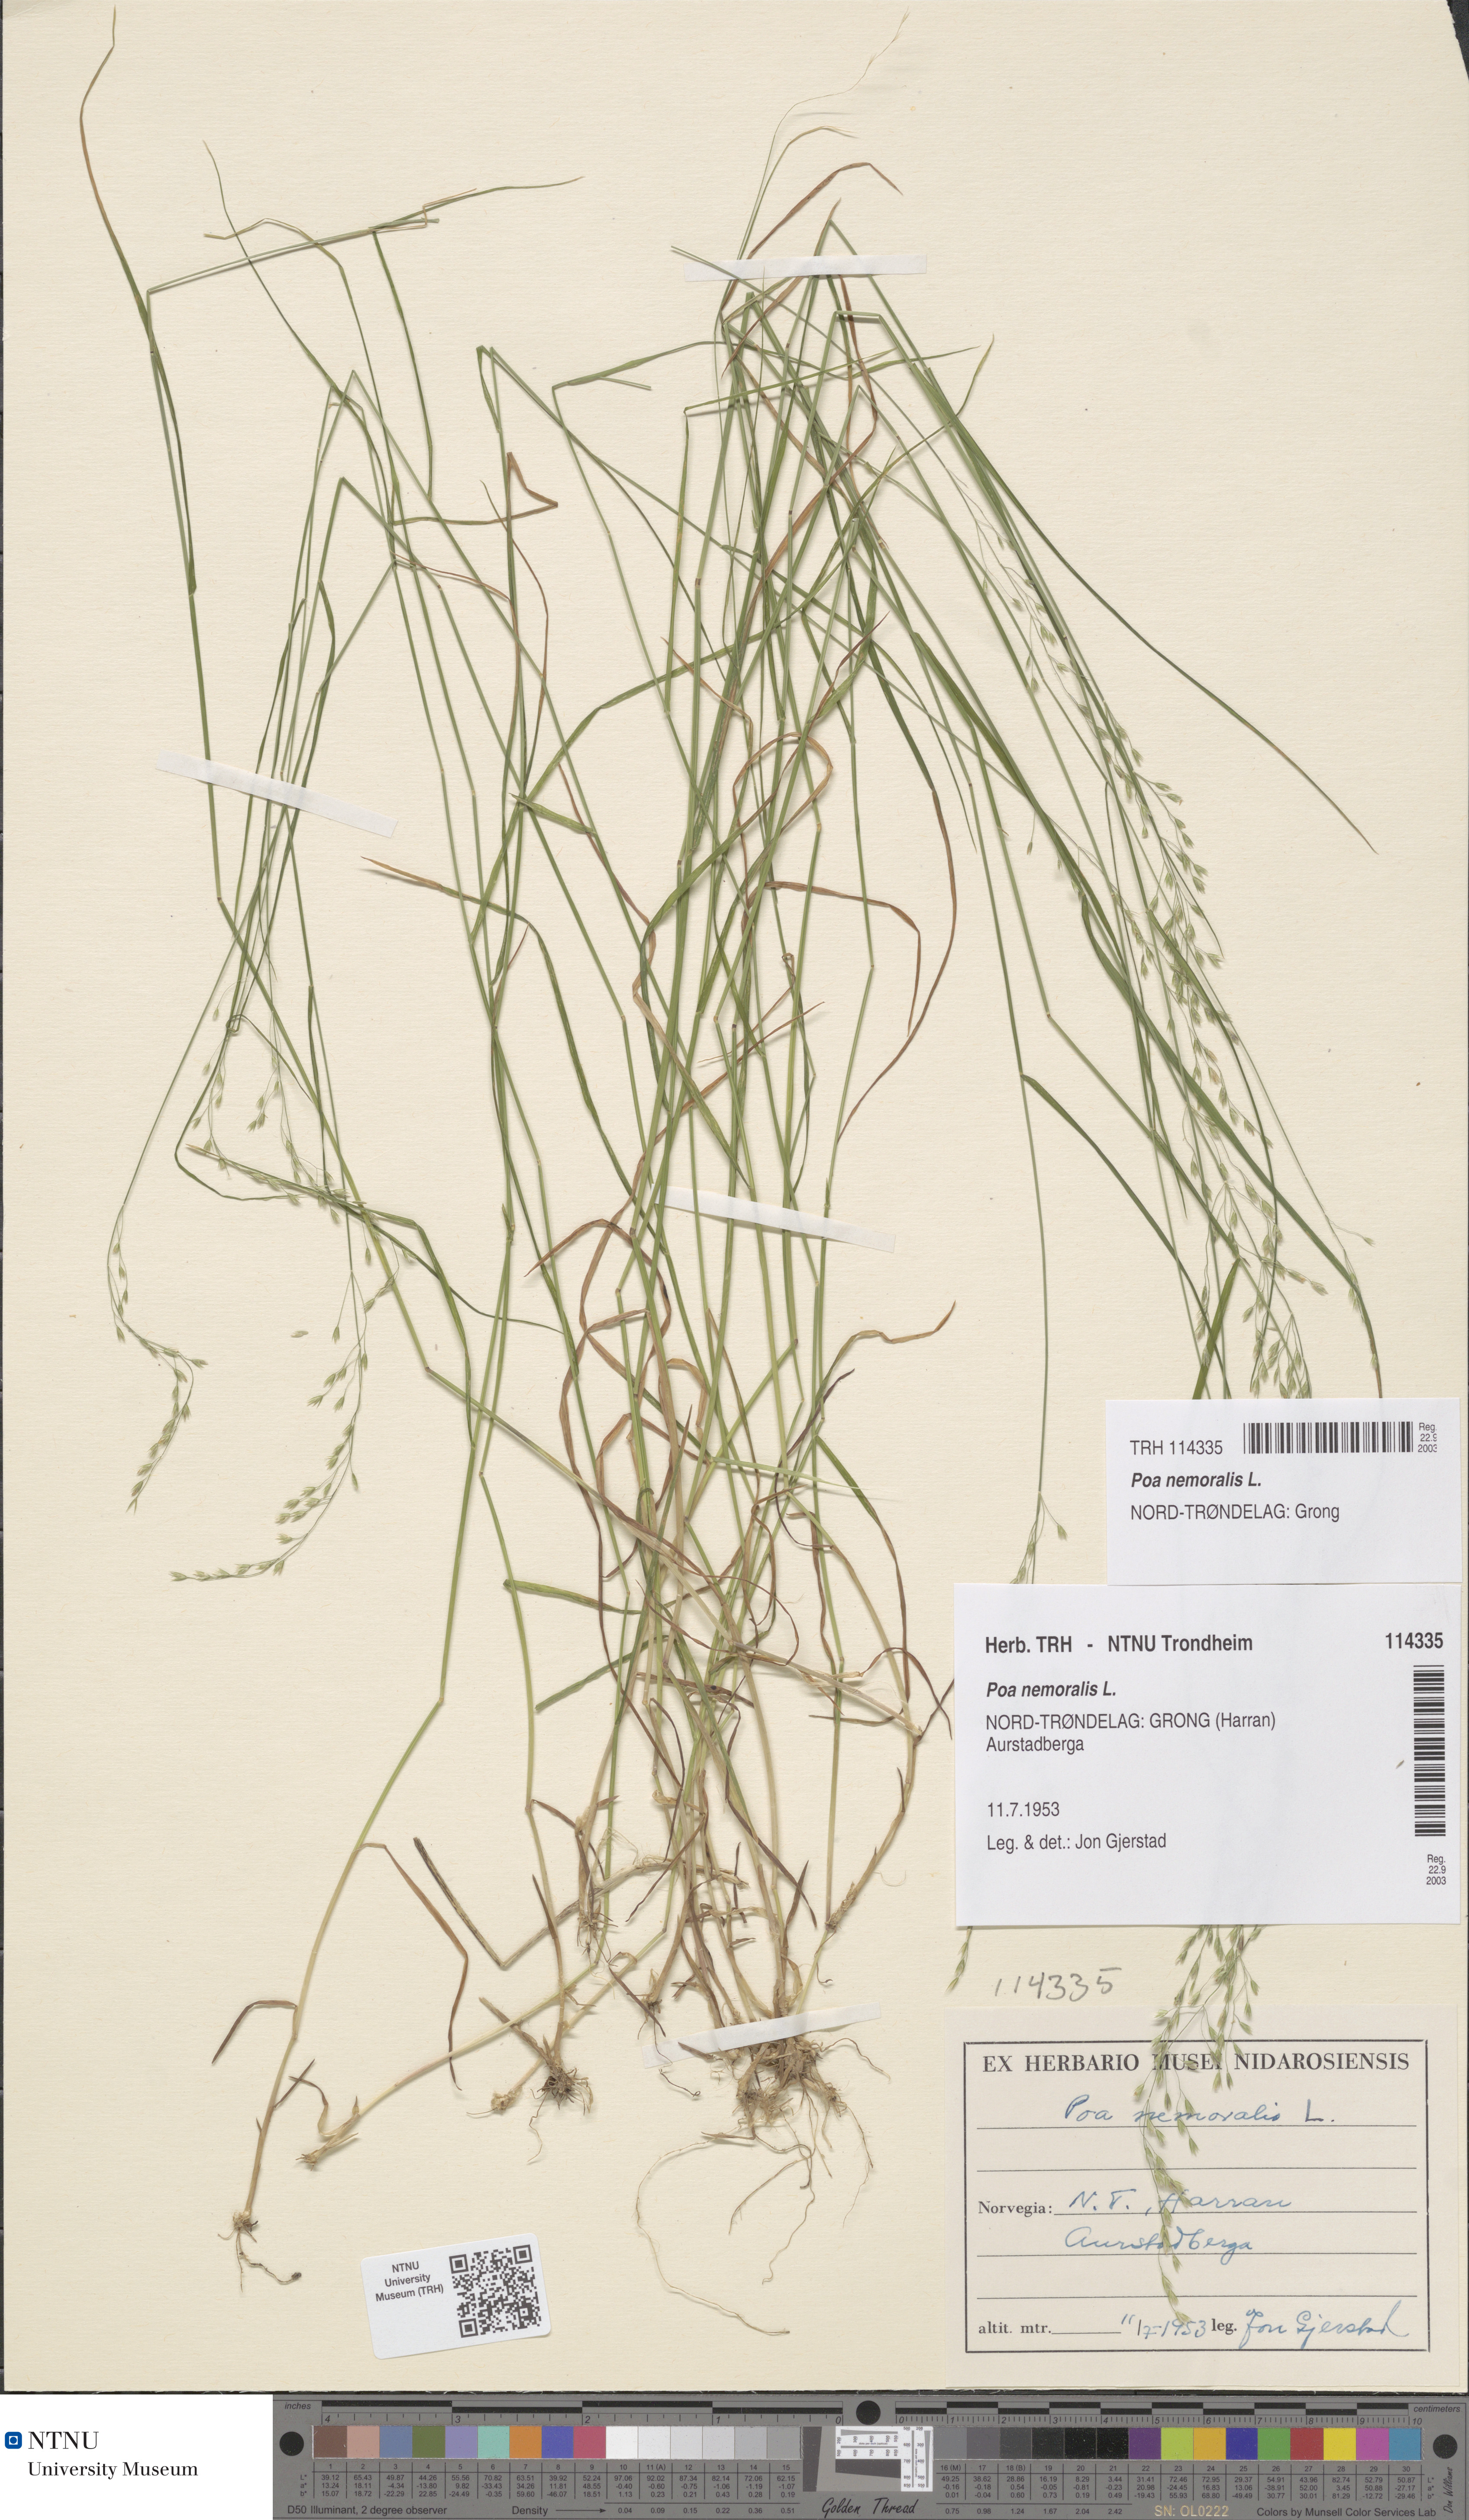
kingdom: Plantae
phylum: Tracheophyta
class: Liliopsida
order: Poales
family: Poaceae
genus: Poa
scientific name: Poa nemoralis
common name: Wood bluegrass
